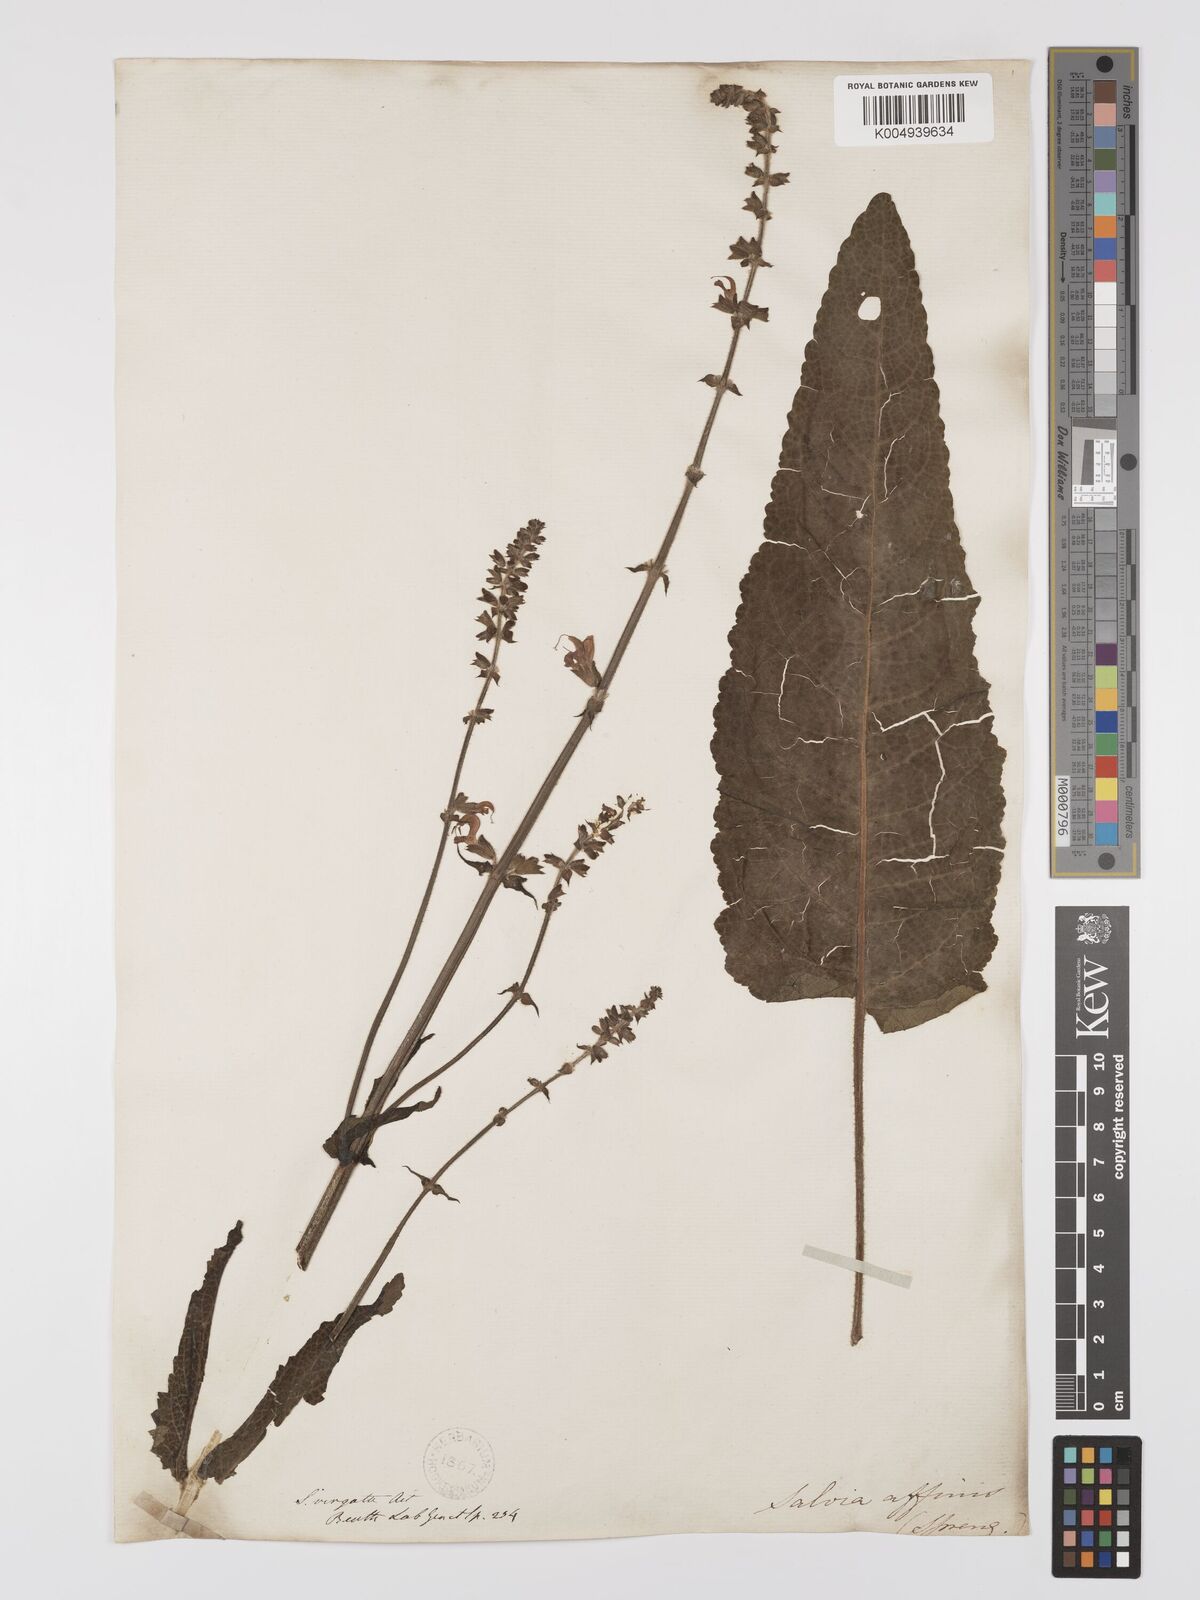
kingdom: Plantae
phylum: Tracheophyta
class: Magnoliopsida
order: Lamiales
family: Lamiaceae
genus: Salvia
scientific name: Salvia
